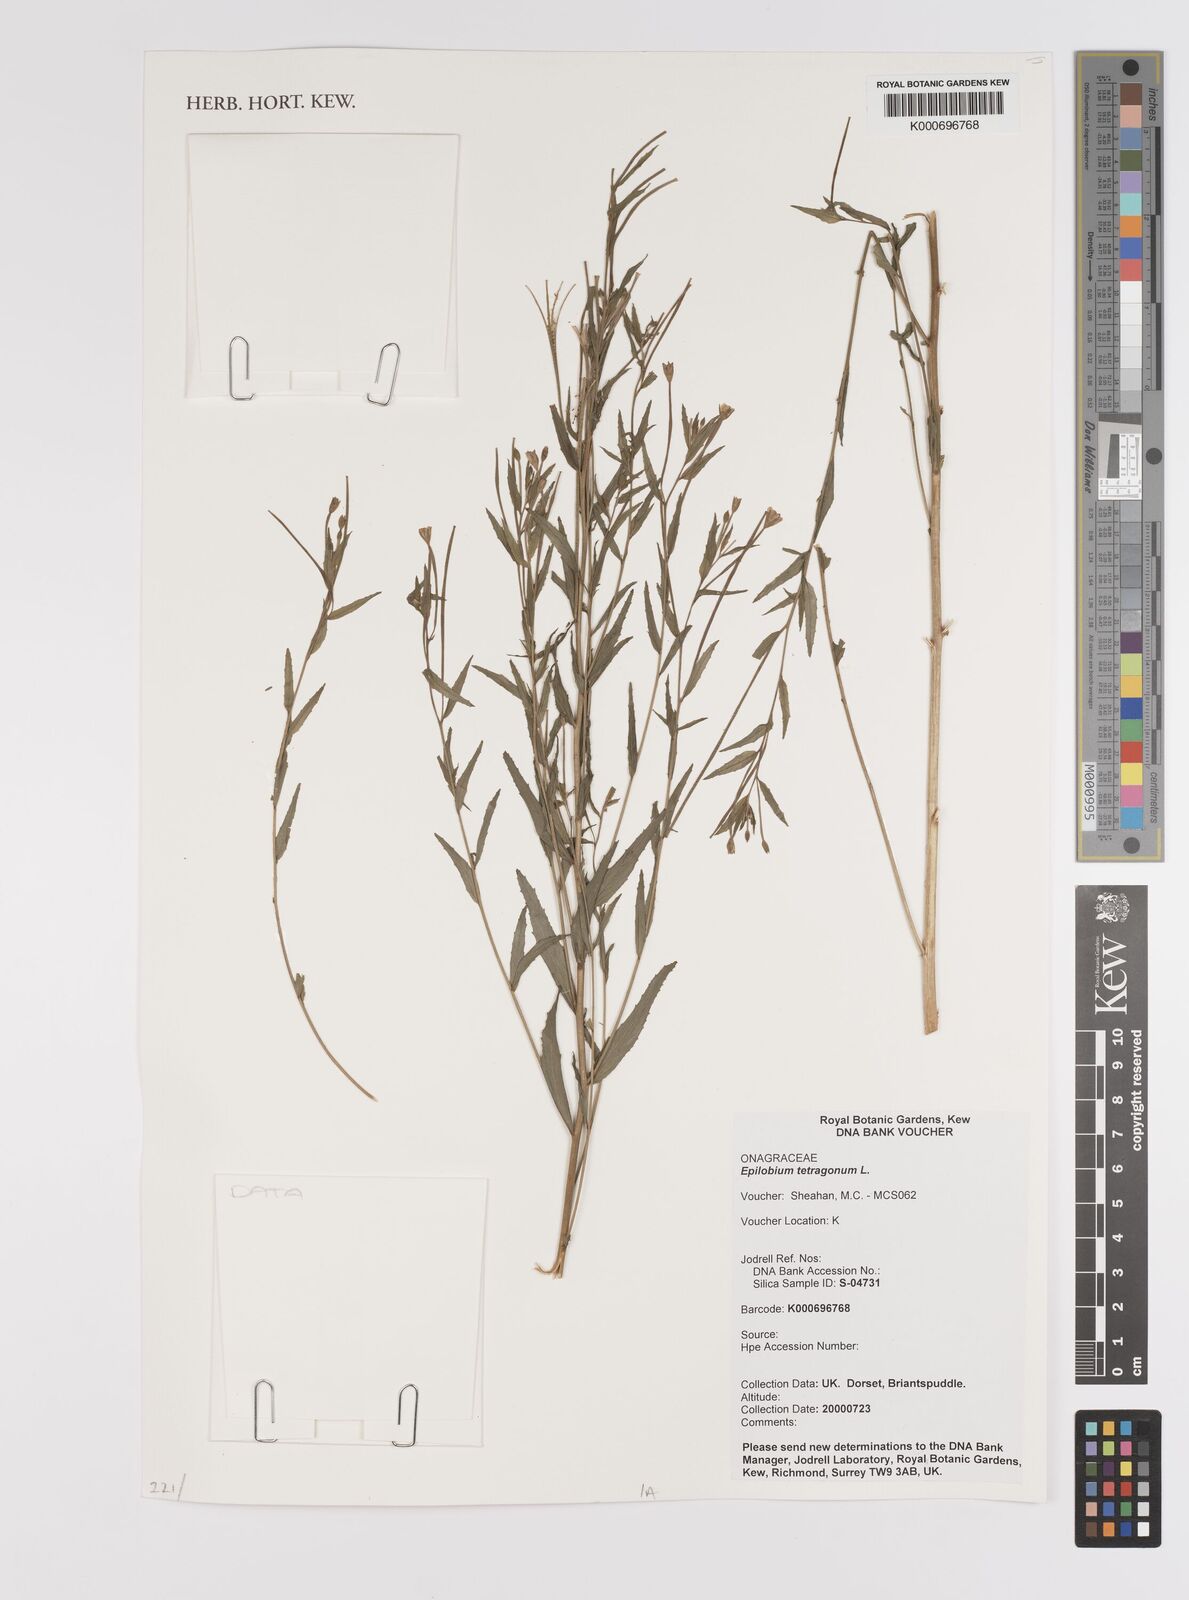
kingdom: Plantae
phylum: Tracheophyta
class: Magnoliopsida
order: Myrtales
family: Onagraceae
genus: Epilobium
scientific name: Epilobium tetragonum
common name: Square-stemmed willowherb
